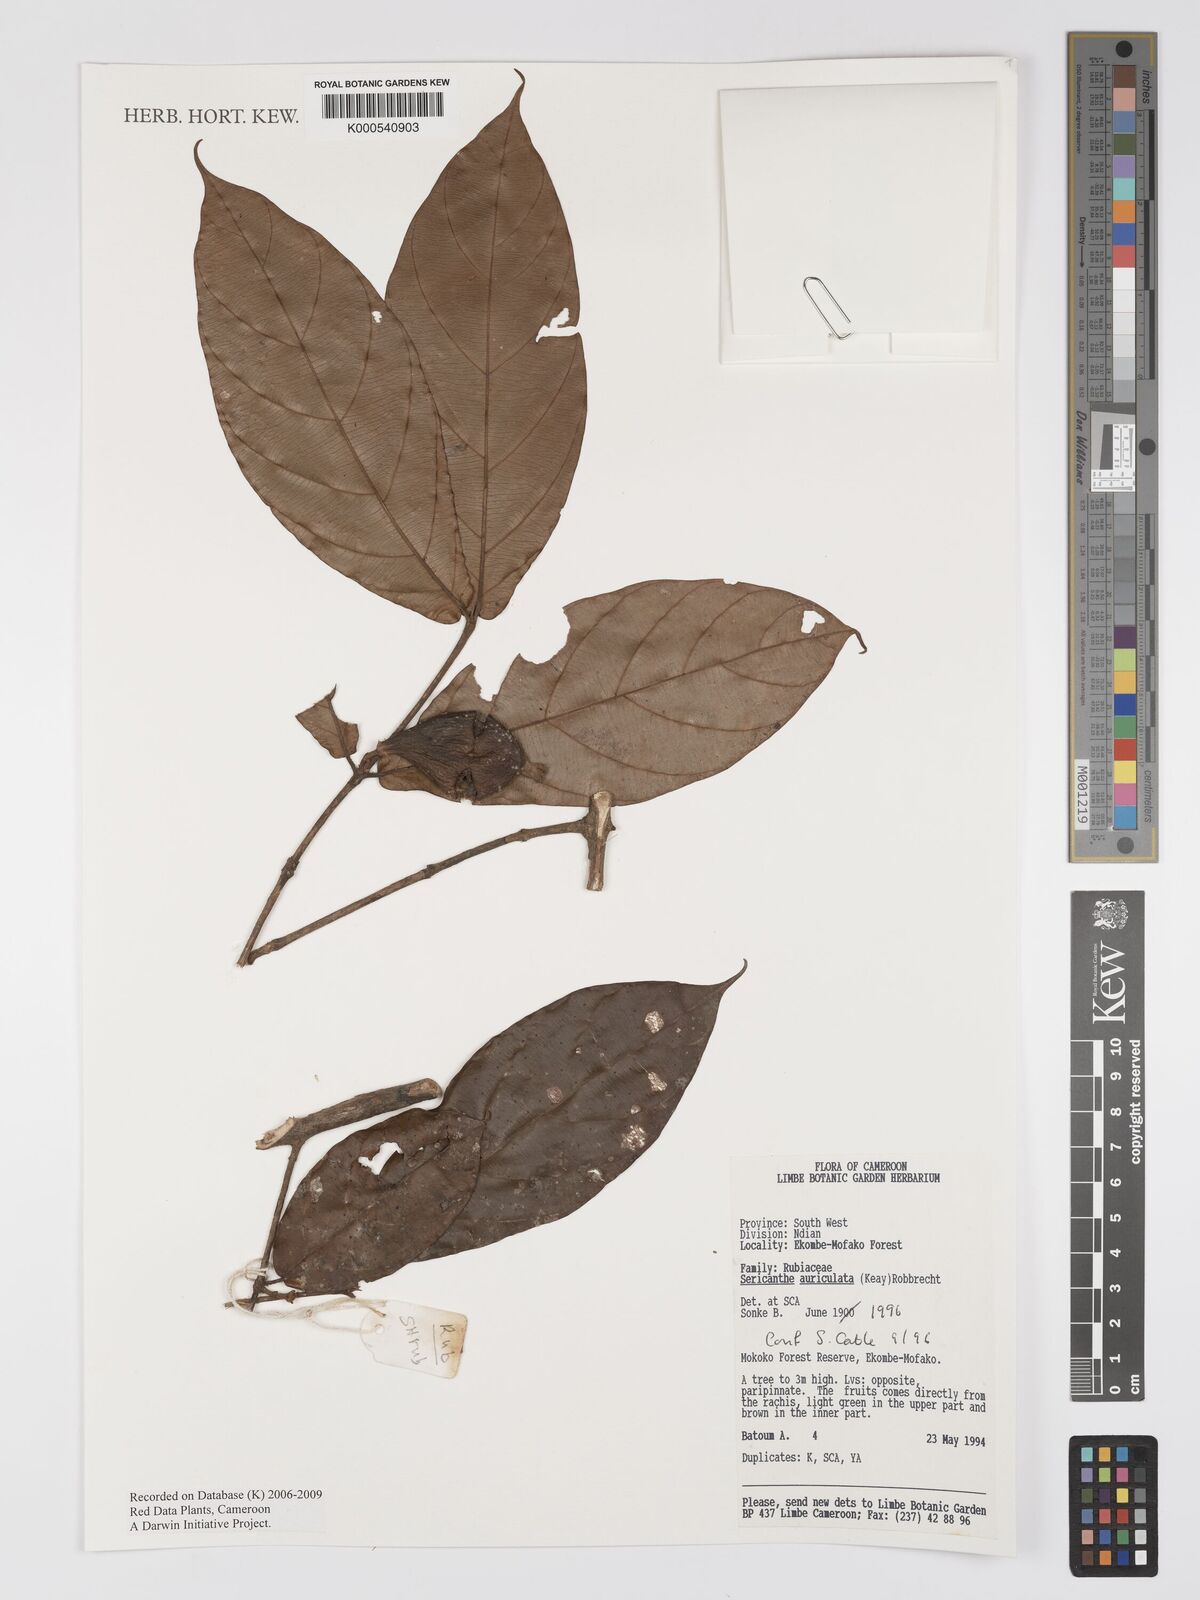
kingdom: Plantae
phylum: Tracheophyta
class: Magnoliopsida
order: Gentianales
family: Rubiaceae
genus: Sericanthe
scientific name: Sericanthe auriculata
